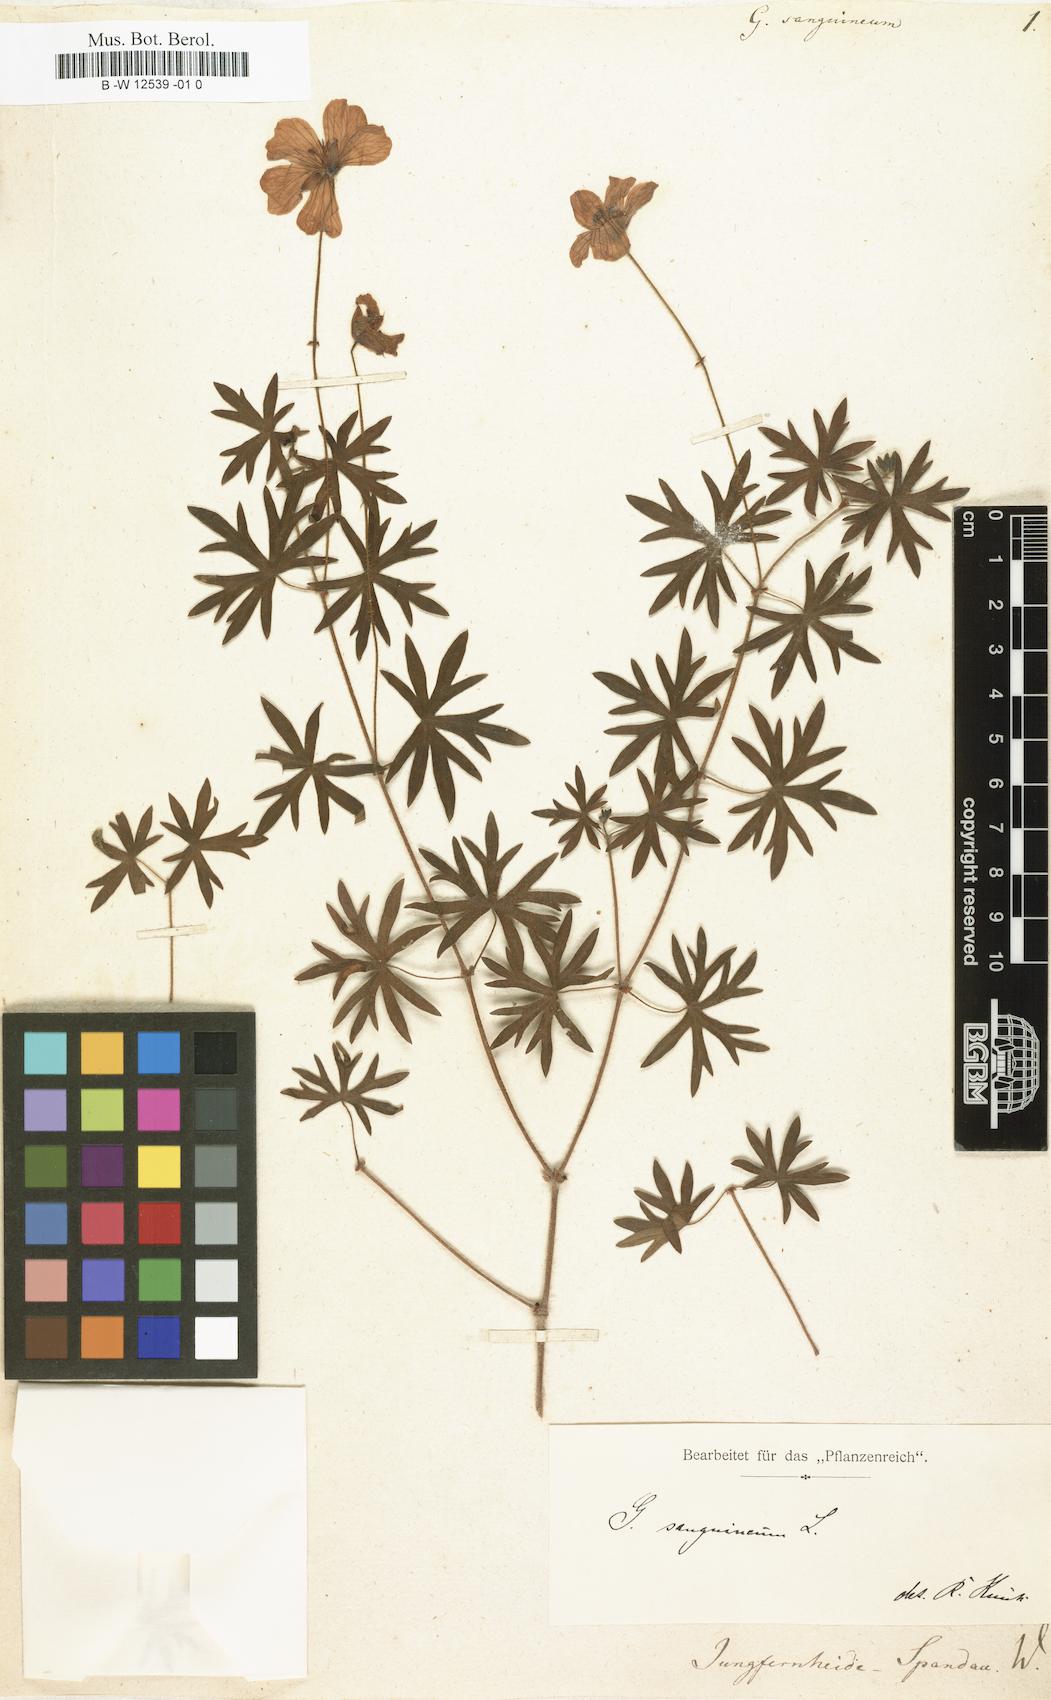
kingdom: Plantae
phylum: Tracheophyta
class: Magnoliopsida
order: Geraniales
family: Geraniaceae
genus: Geranium
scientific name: Geranium sanguineum
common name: Bloody crane's-bill
